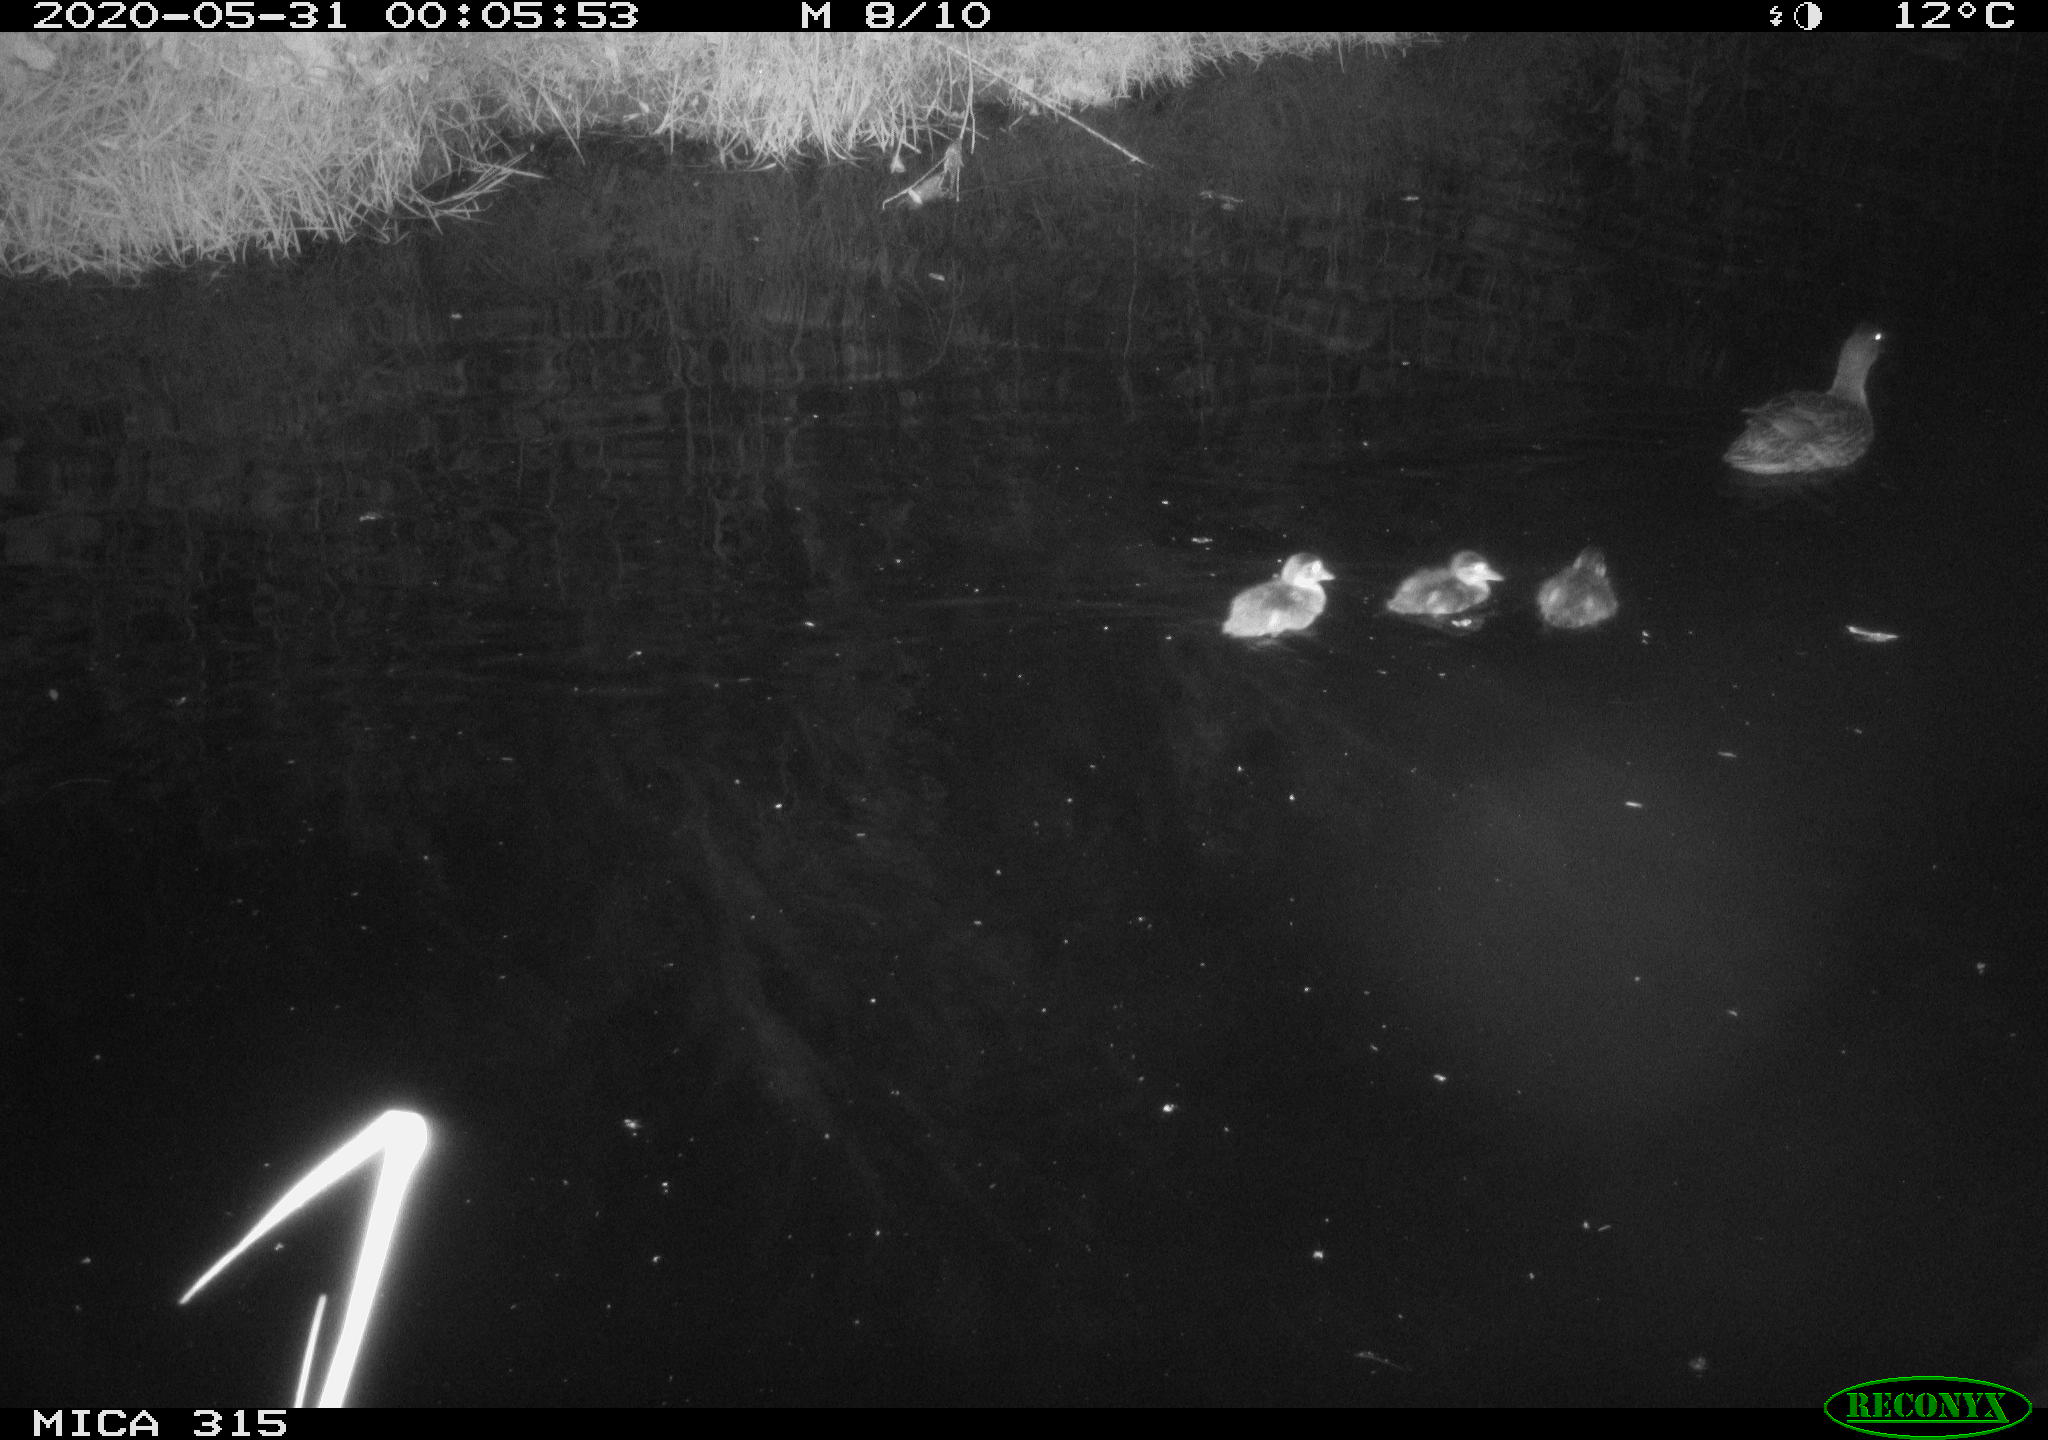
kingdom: Animalia
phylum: Chordata
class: Aves
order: Anseriformes
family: Anatidae
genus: Anas
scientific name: Anas platyrhynchos
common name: Mallard
